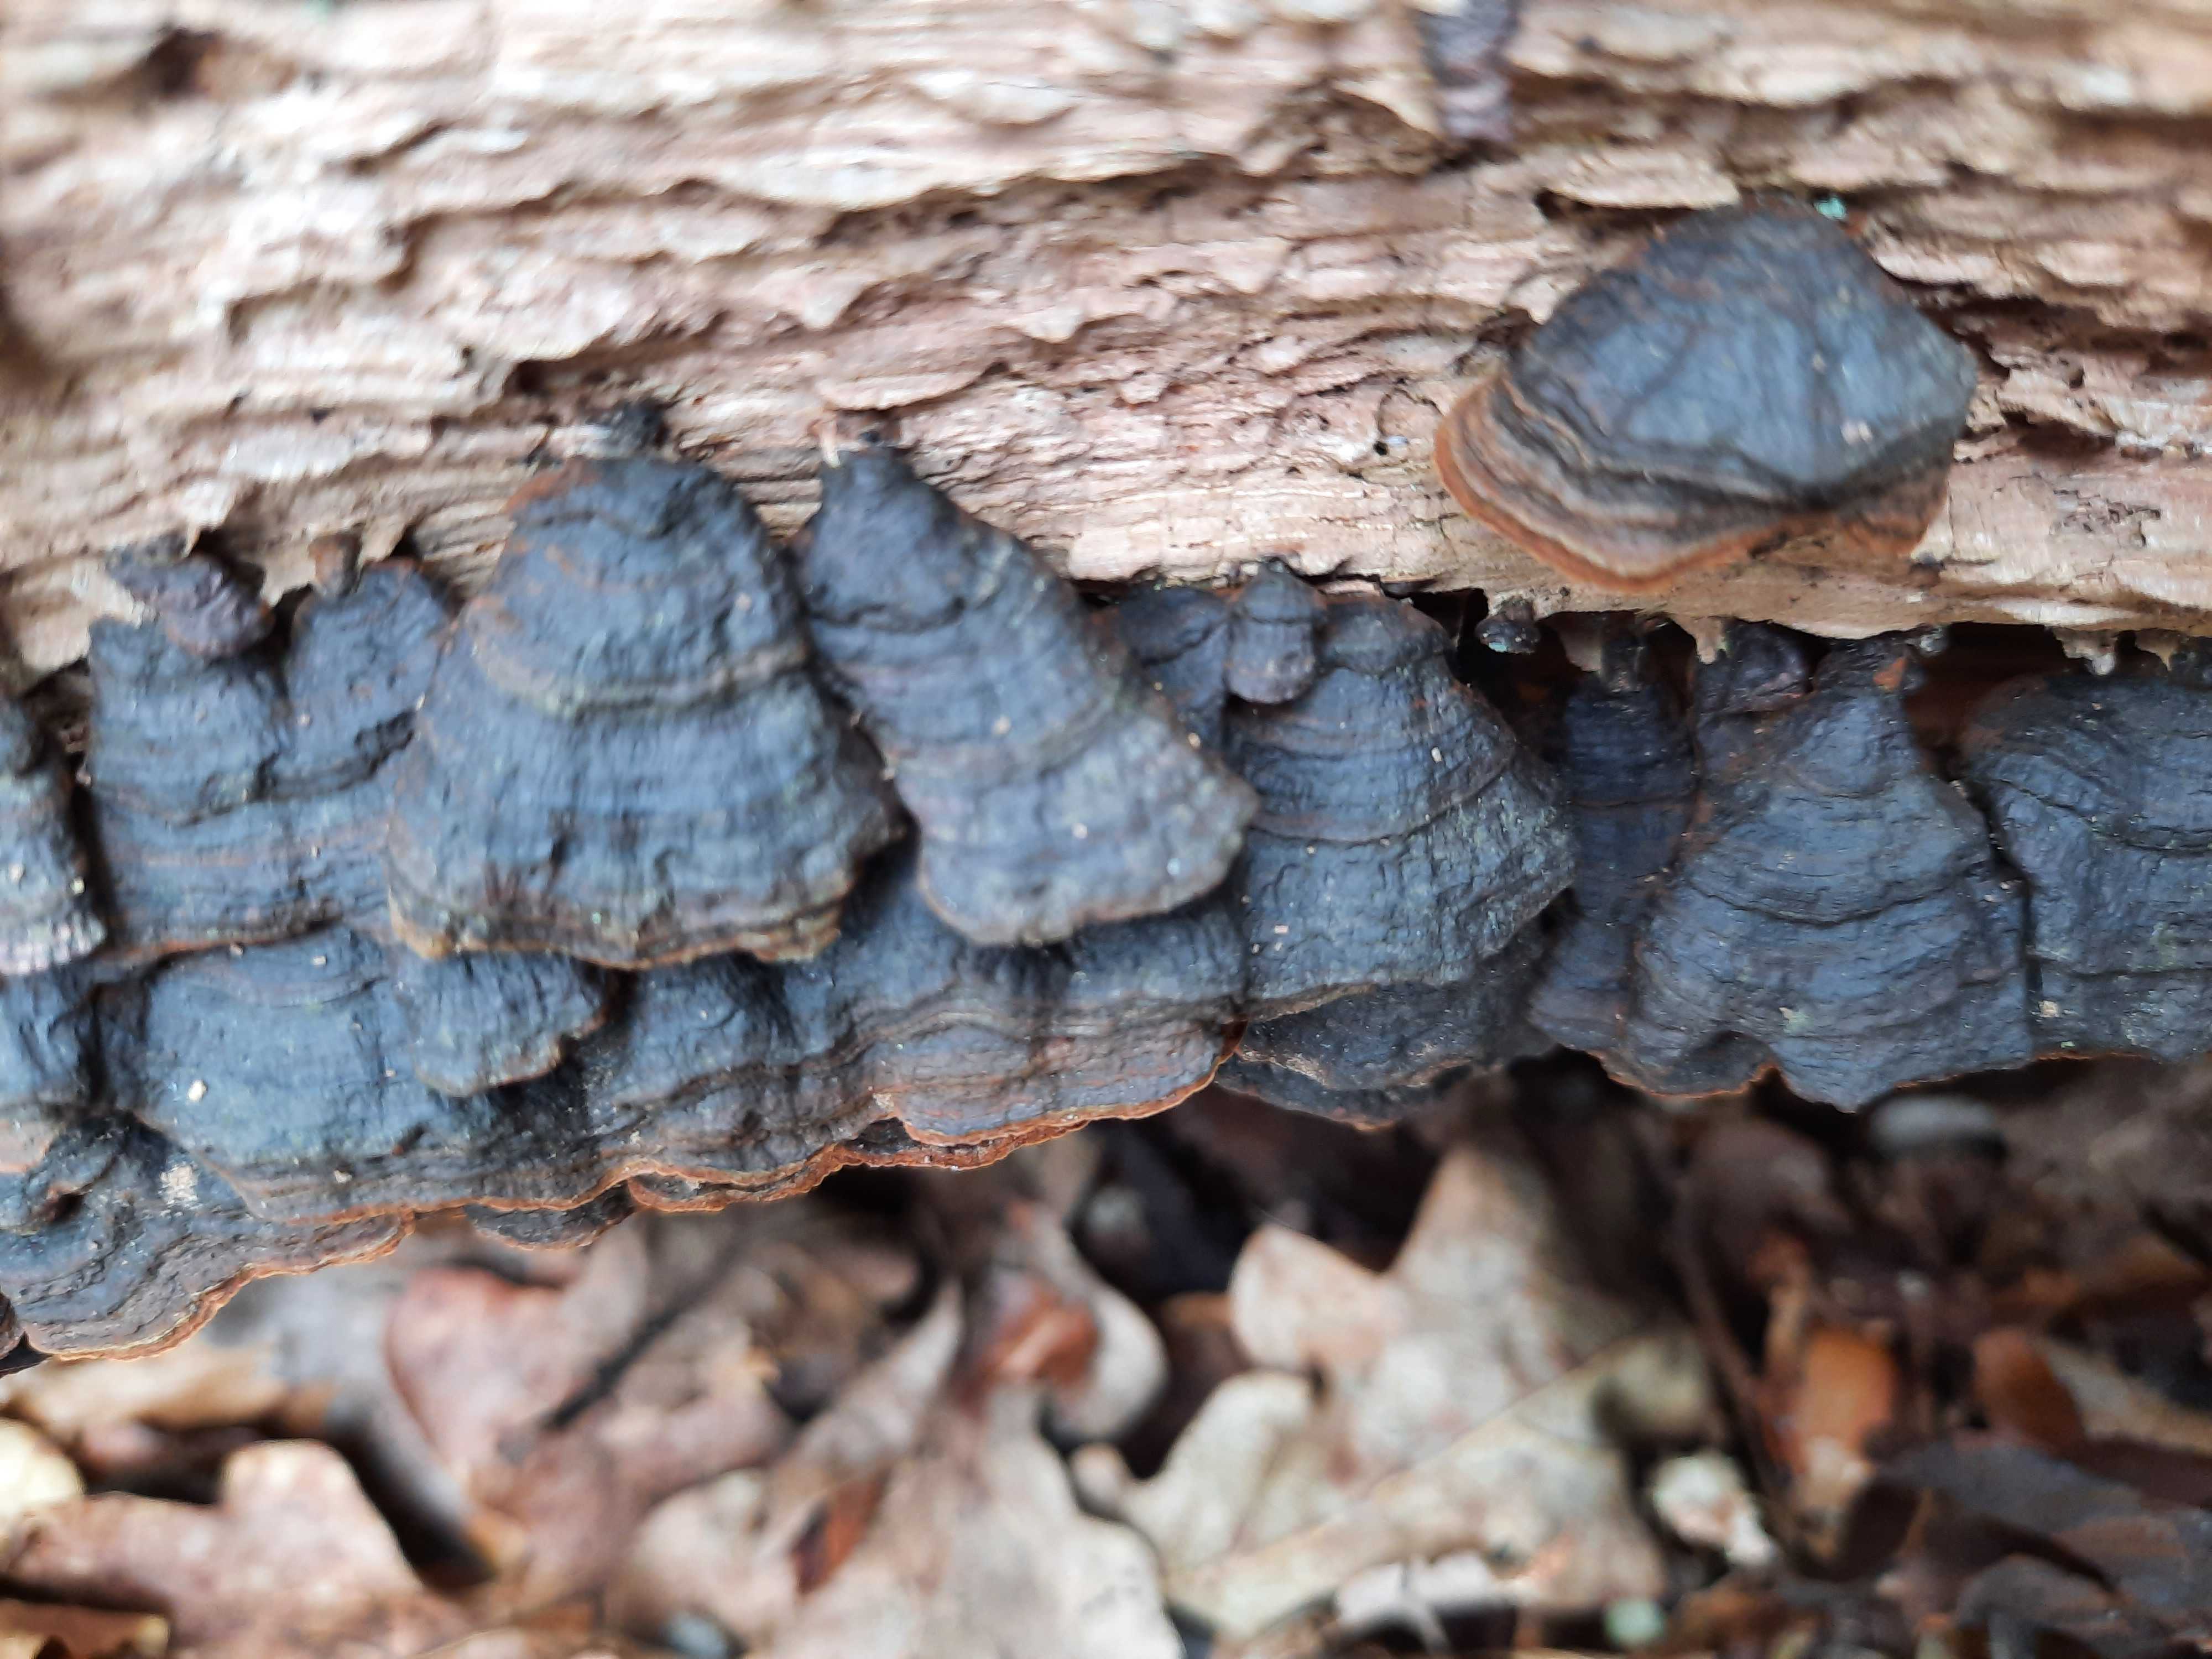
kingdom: Fungi
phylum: Basidiomycota
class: Agaricomycetes
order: Hymenochaetales
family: Hymenochaetaceae
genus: Hymenochaete
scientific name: Hymenochaete rubiginosa
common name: stiv ruslædersvamp
